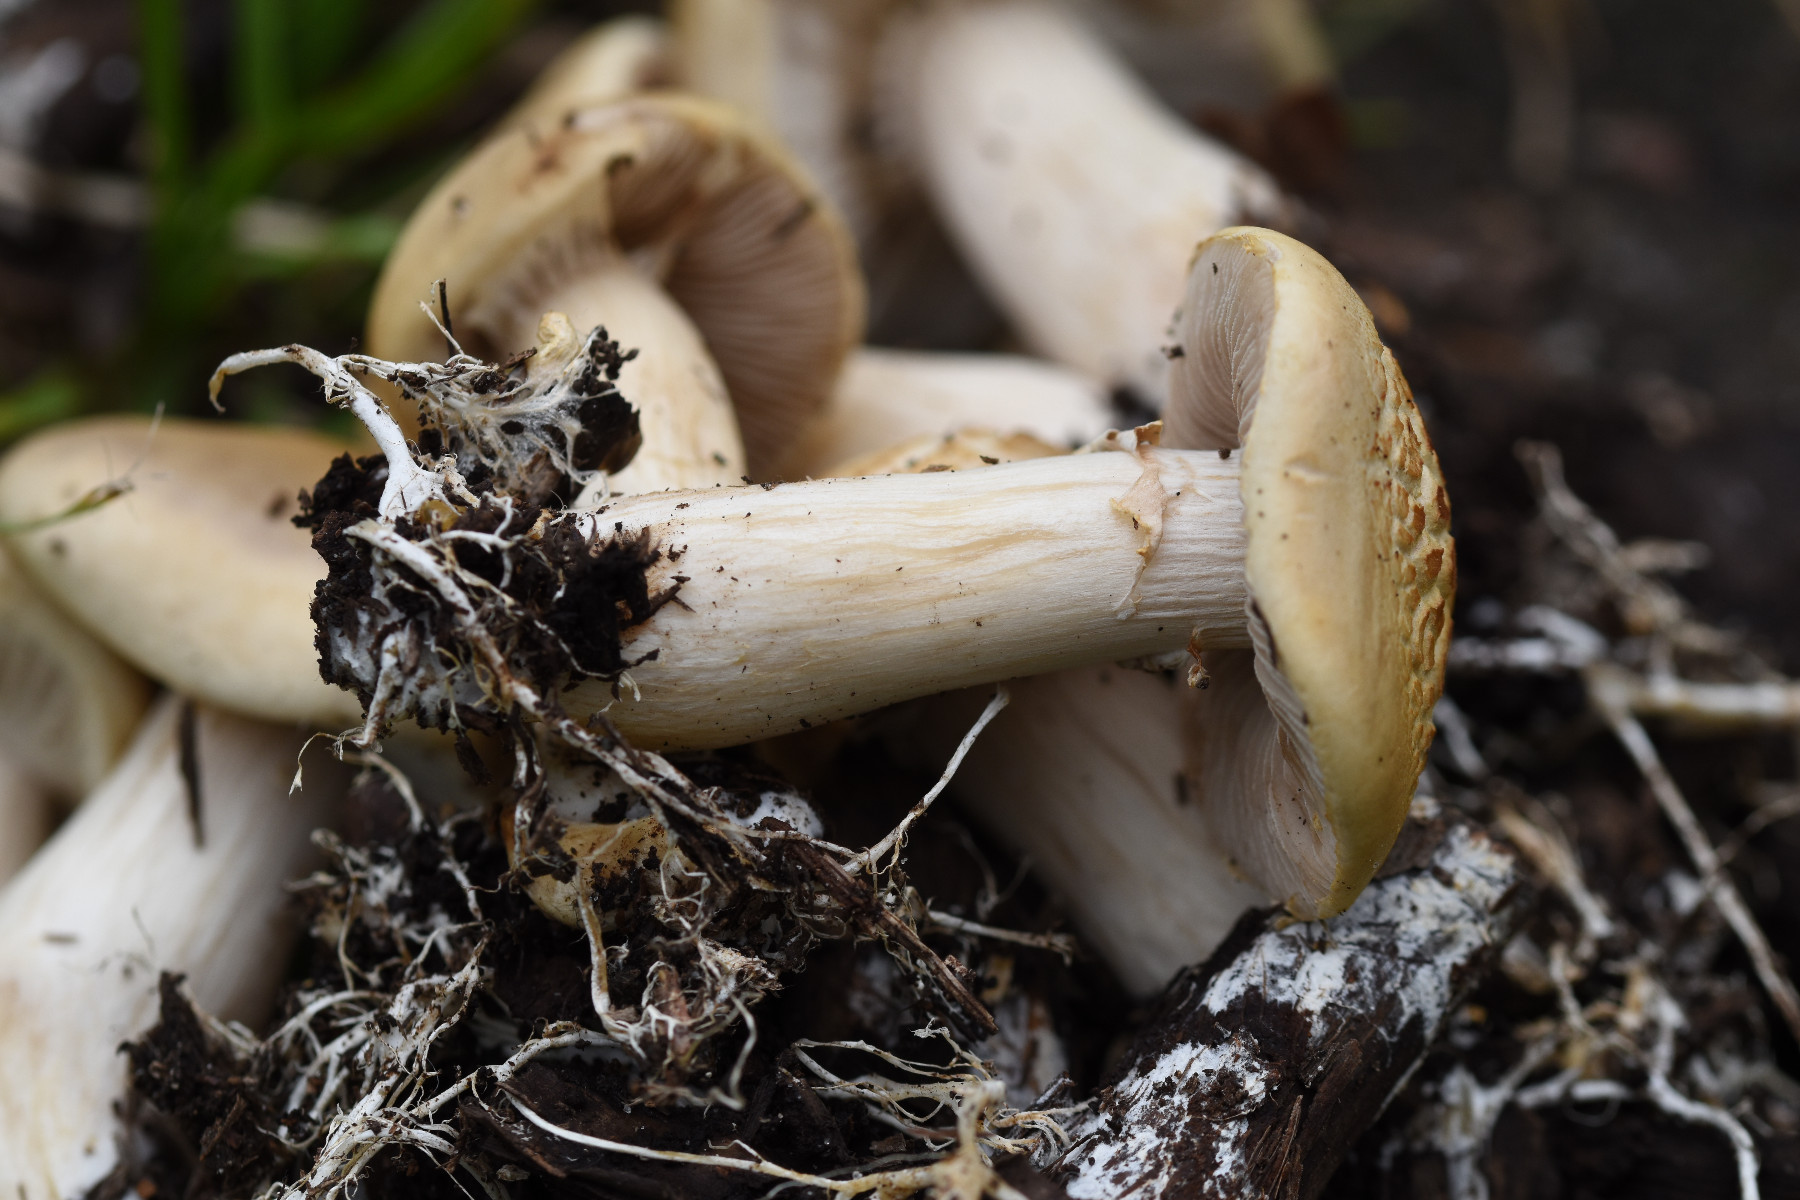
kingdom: Fungi
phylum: Basidiomycota
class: Agaricomycetes
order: Agaricales
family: Strophariaceae
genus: Agrocybe
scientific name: Agrocybe praecox
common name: tidlig agerhat
